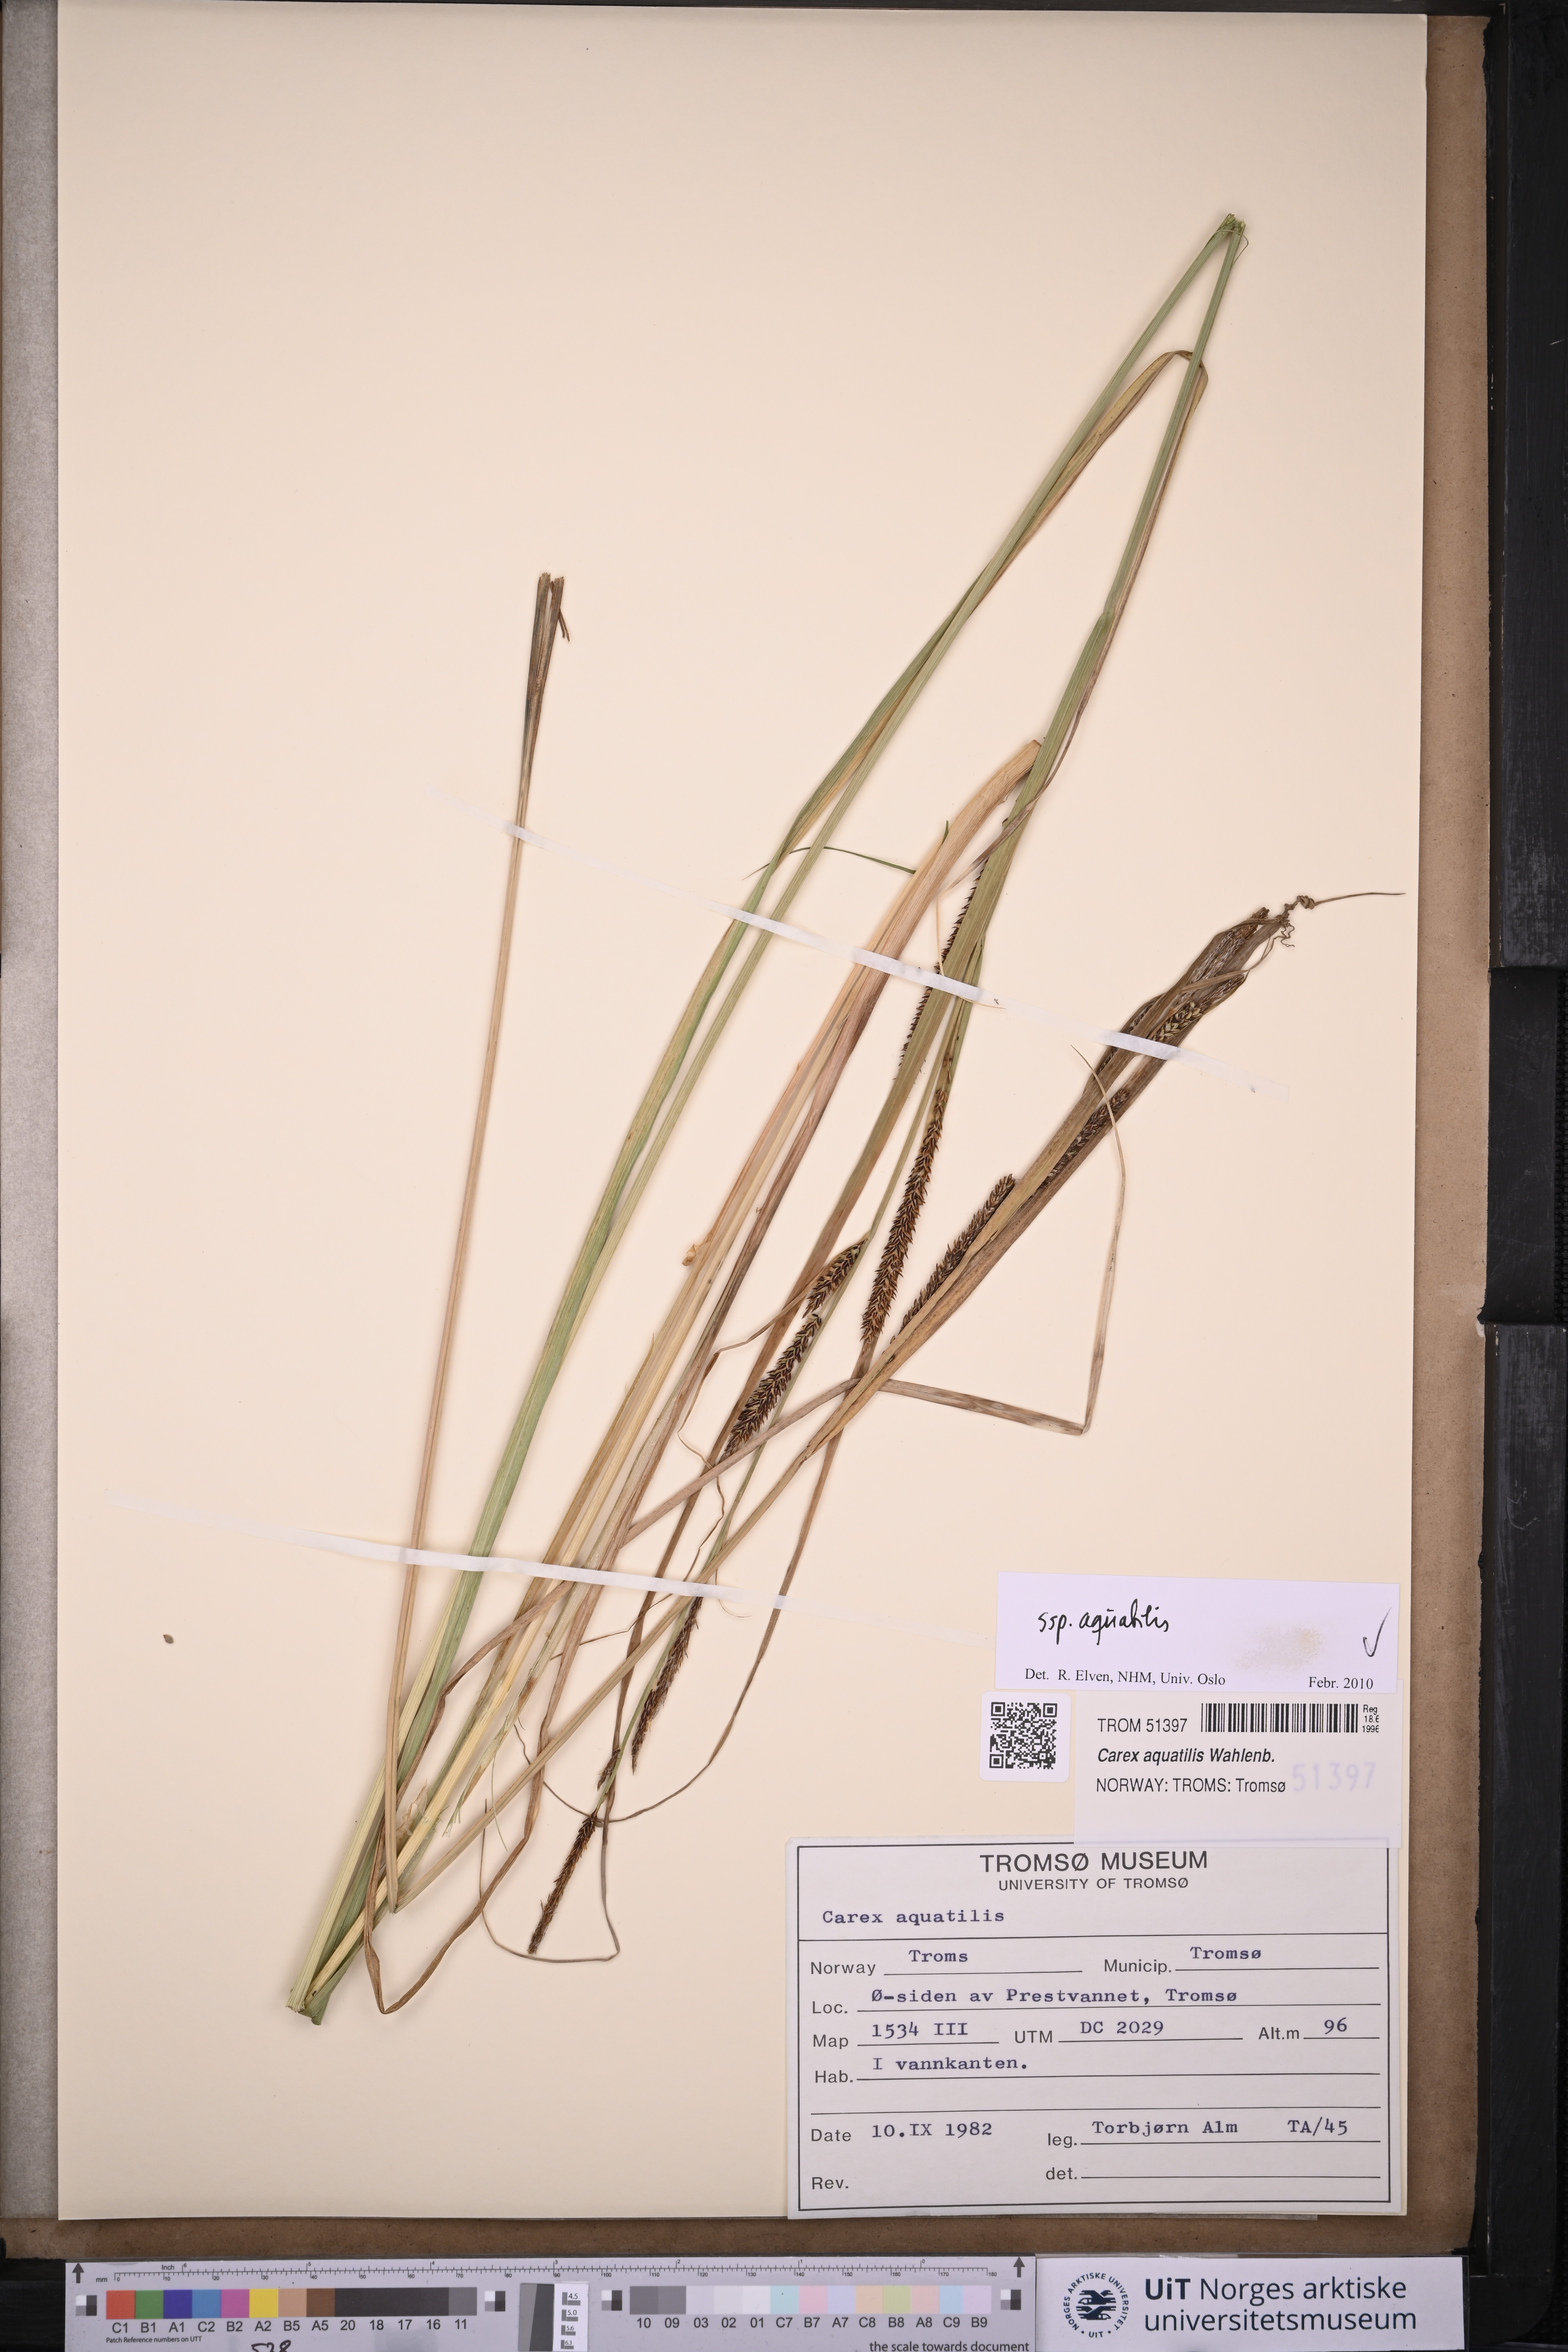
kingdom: Plantae
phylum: Tracheophyta
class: Liliopsida
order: Poales
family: Cyperaceae
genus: Carex
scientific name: Carex aquatilis
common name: Water sedge
